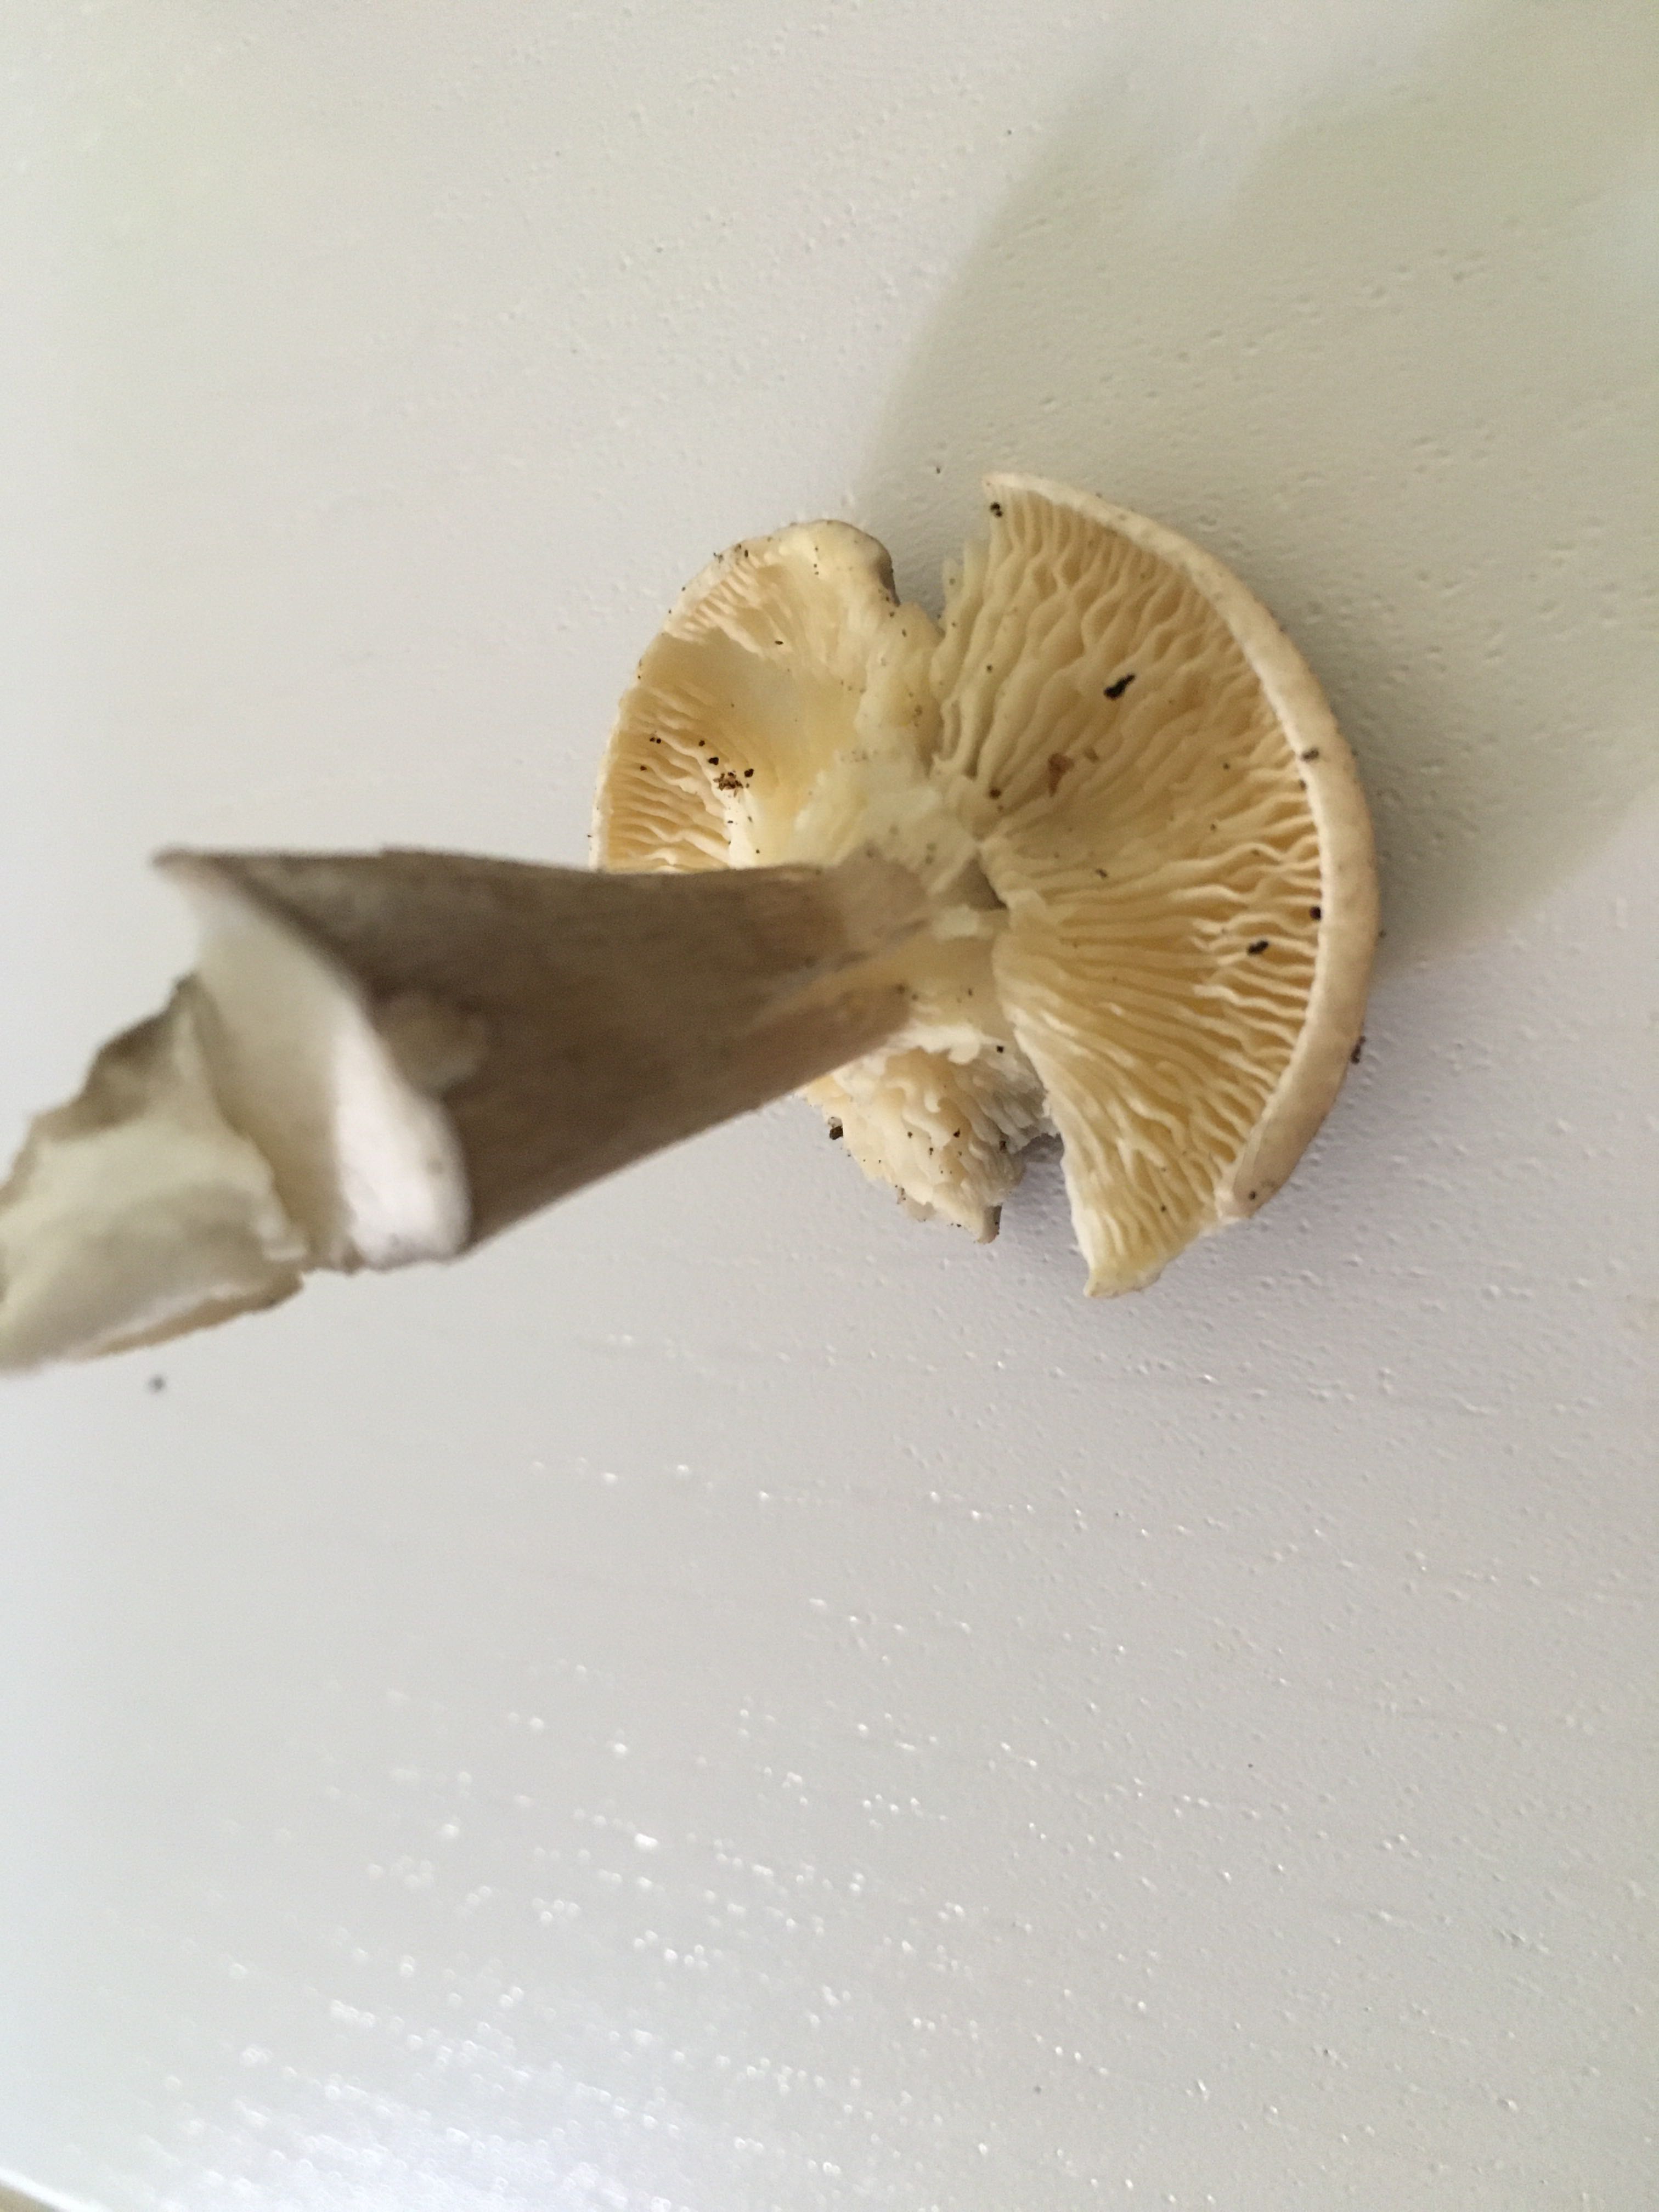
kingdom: Fungi
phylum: Basidiomycota
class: Agaricomycetes
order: Agaricales
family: Hygrophoraceae
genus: Ampulloclitocybe
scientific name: Ampulloclitocybe clavipes
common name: køllefod
